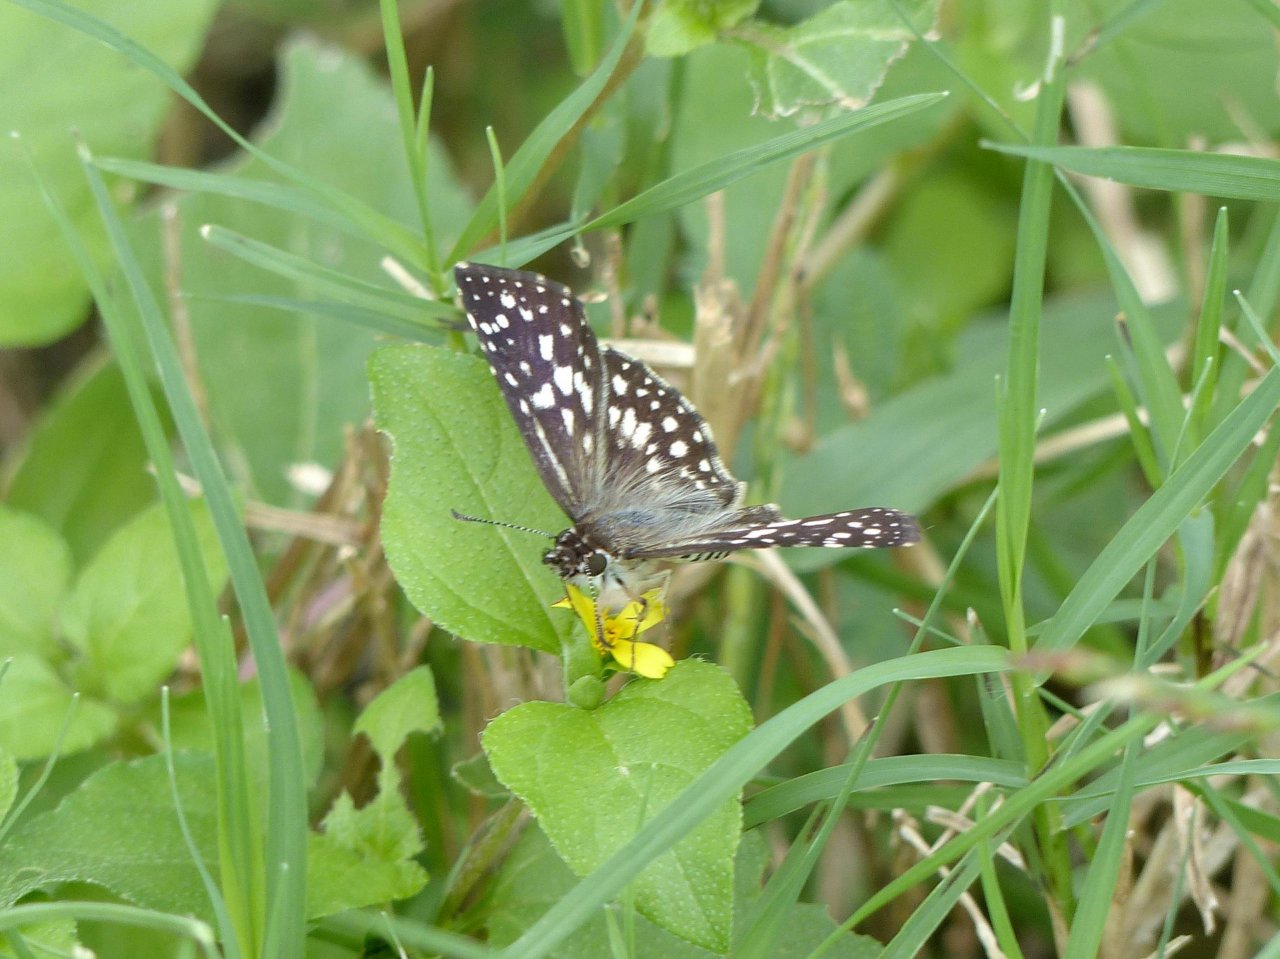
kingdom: Animalia
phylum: Arthropoda
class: Insecta
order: Lepidoptera
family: Hesperiidae
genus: Pyrgus
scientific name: Pyrgus oileus
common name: Tropical Checkered-Skipper
